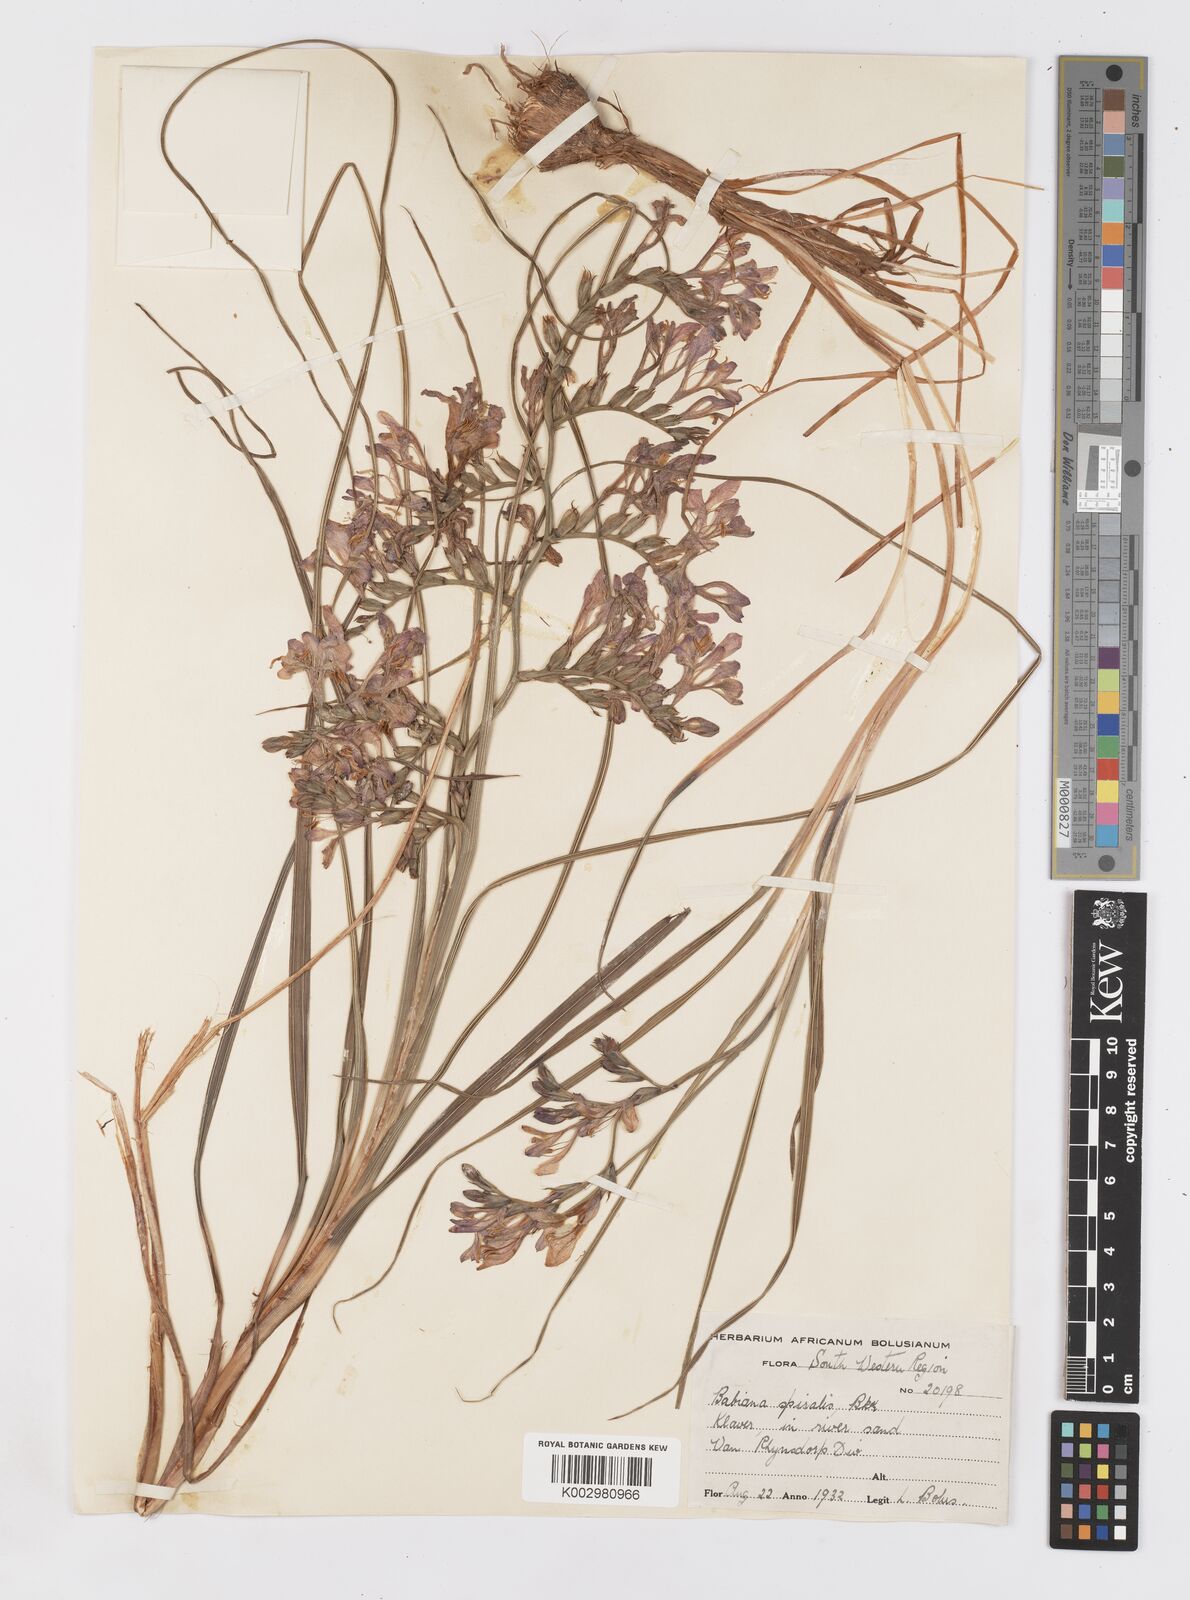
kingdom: Plantae
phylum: Tracheophyta
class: Liliopsida
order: Asparagales
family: Iridaceae
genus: Babiana
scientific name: Babiana spiralis
